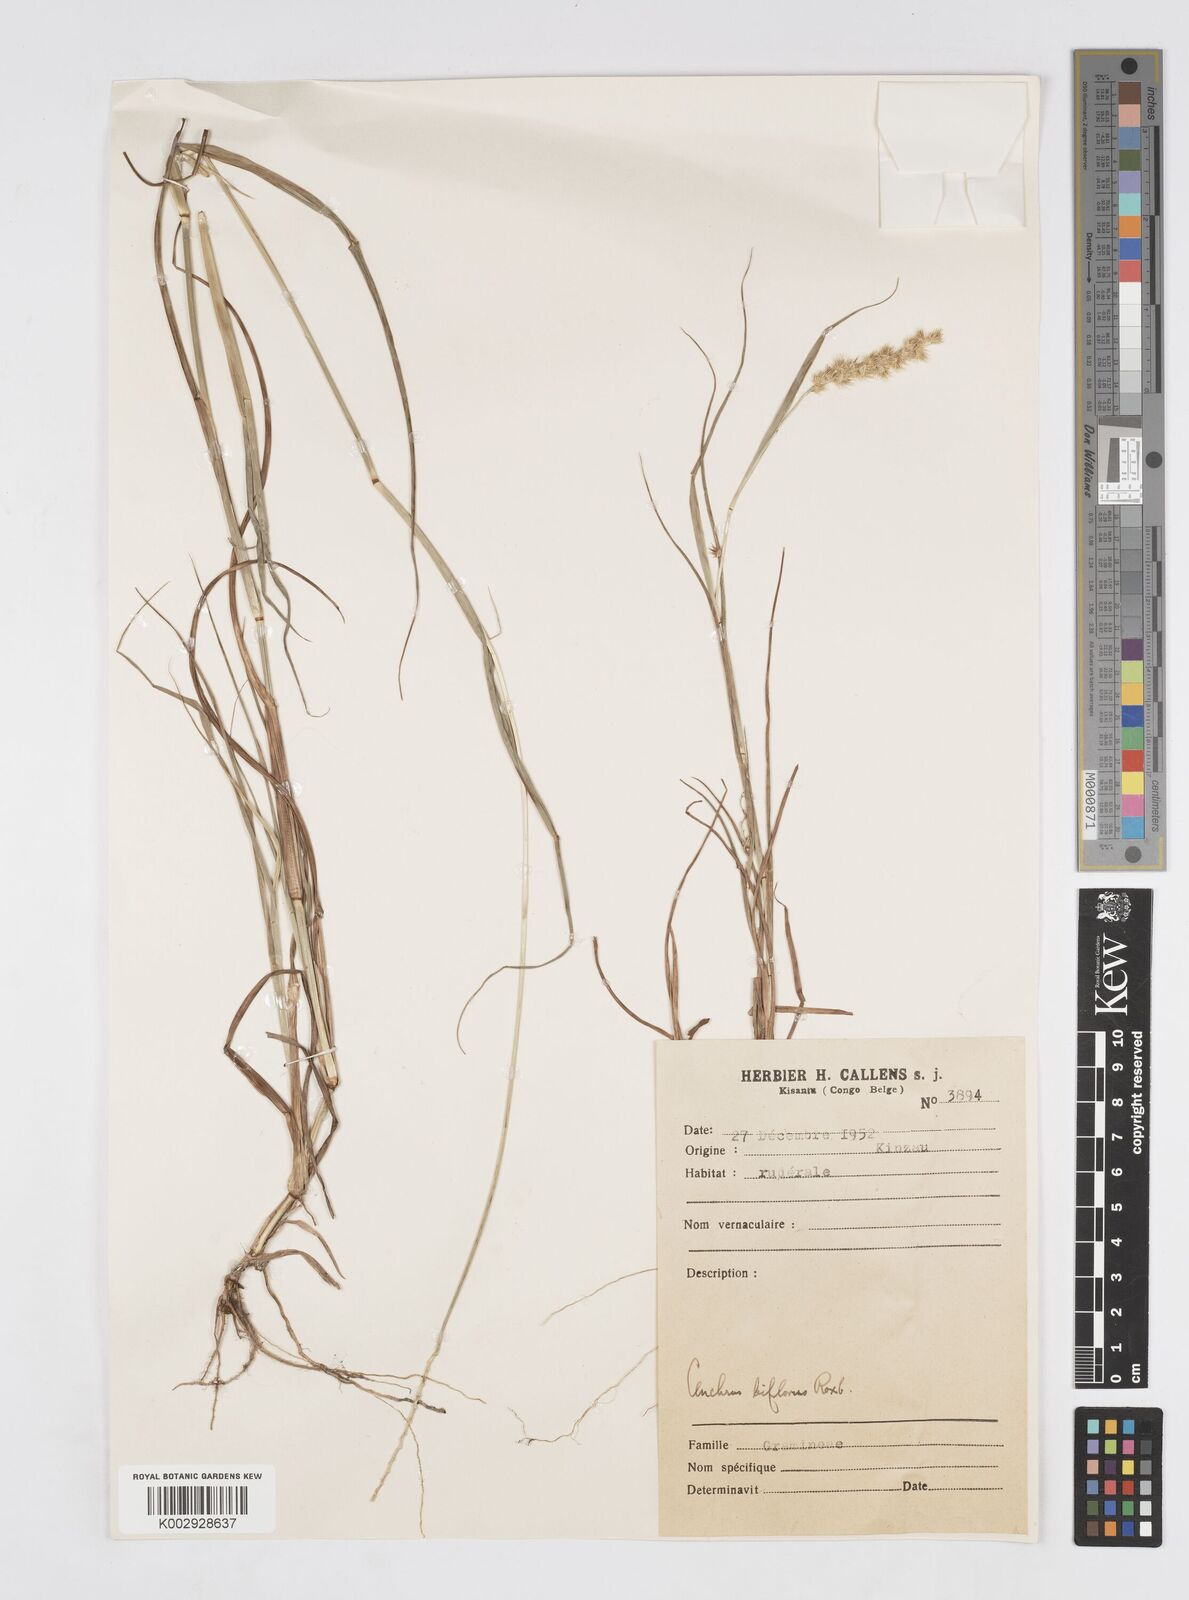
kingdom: Plantae
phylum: Tracheophyta
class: Liliopsida
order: Poales
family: Poaceae
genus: Cenchrus
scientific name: Cenchrus biflorus
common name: Indian sandbur
